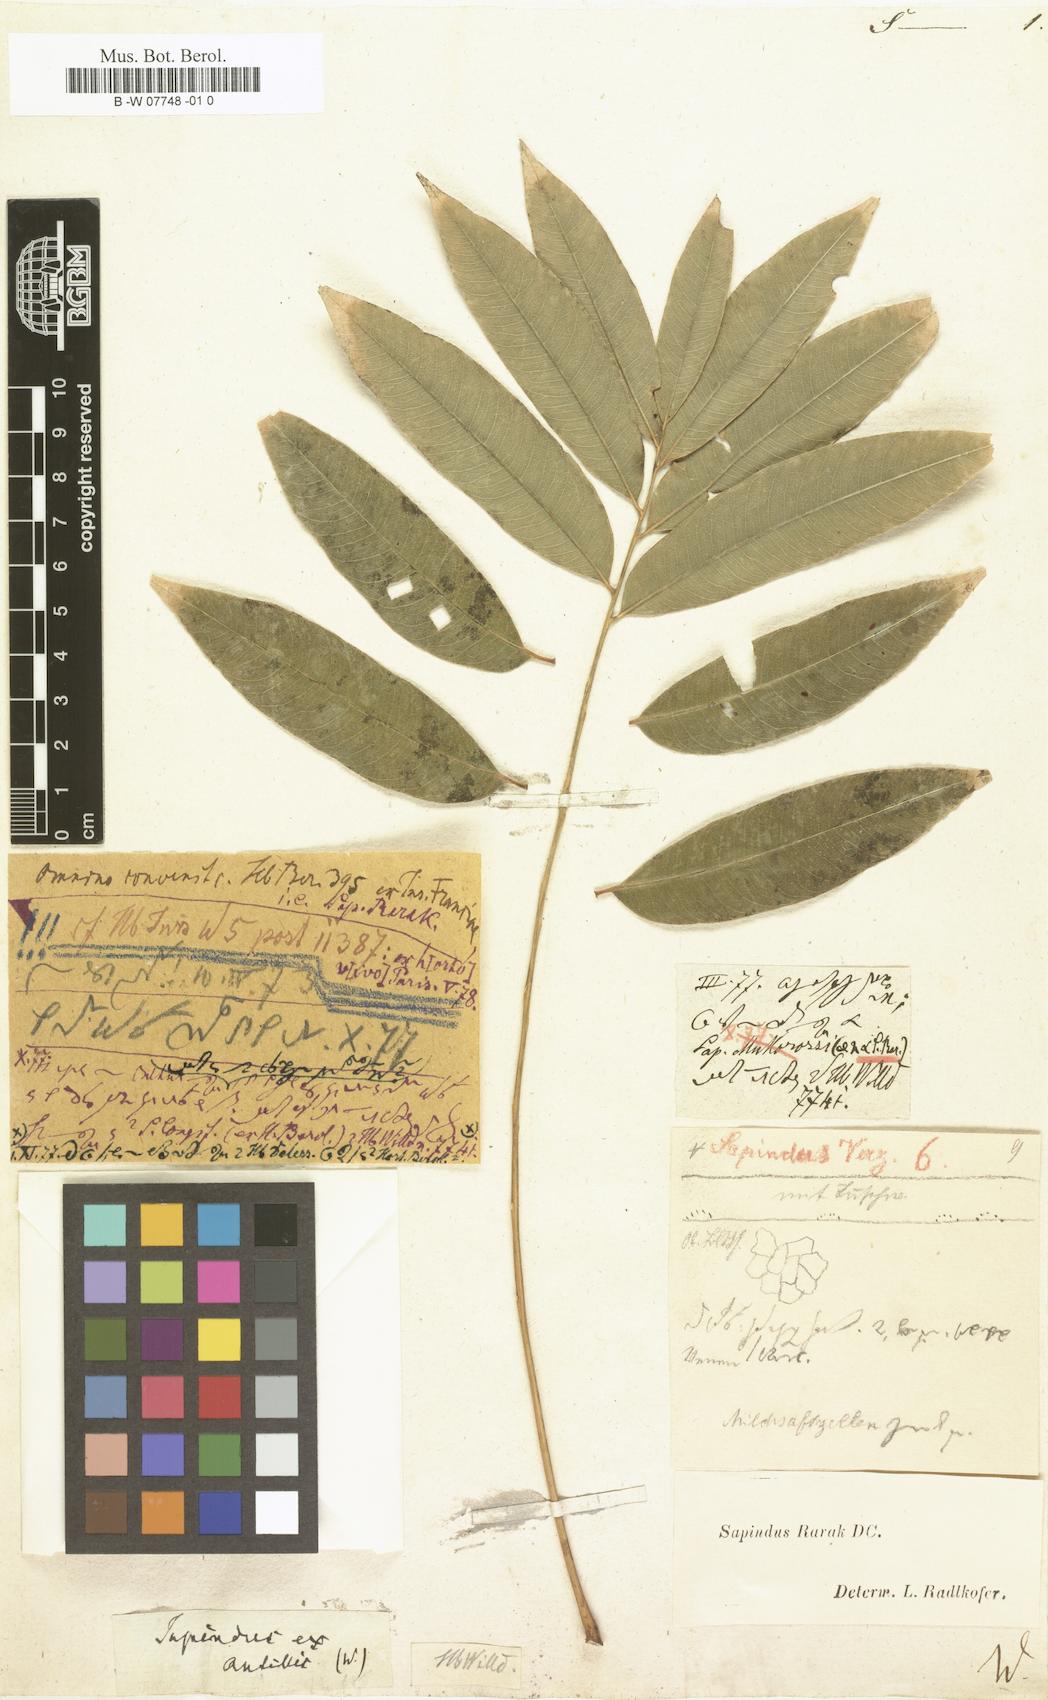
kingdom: Plantae
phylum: Tracheophyta
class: Magnoliopsida
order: Sapindales
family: Sapindaceae
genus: Sapindus
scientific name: Sapindus
